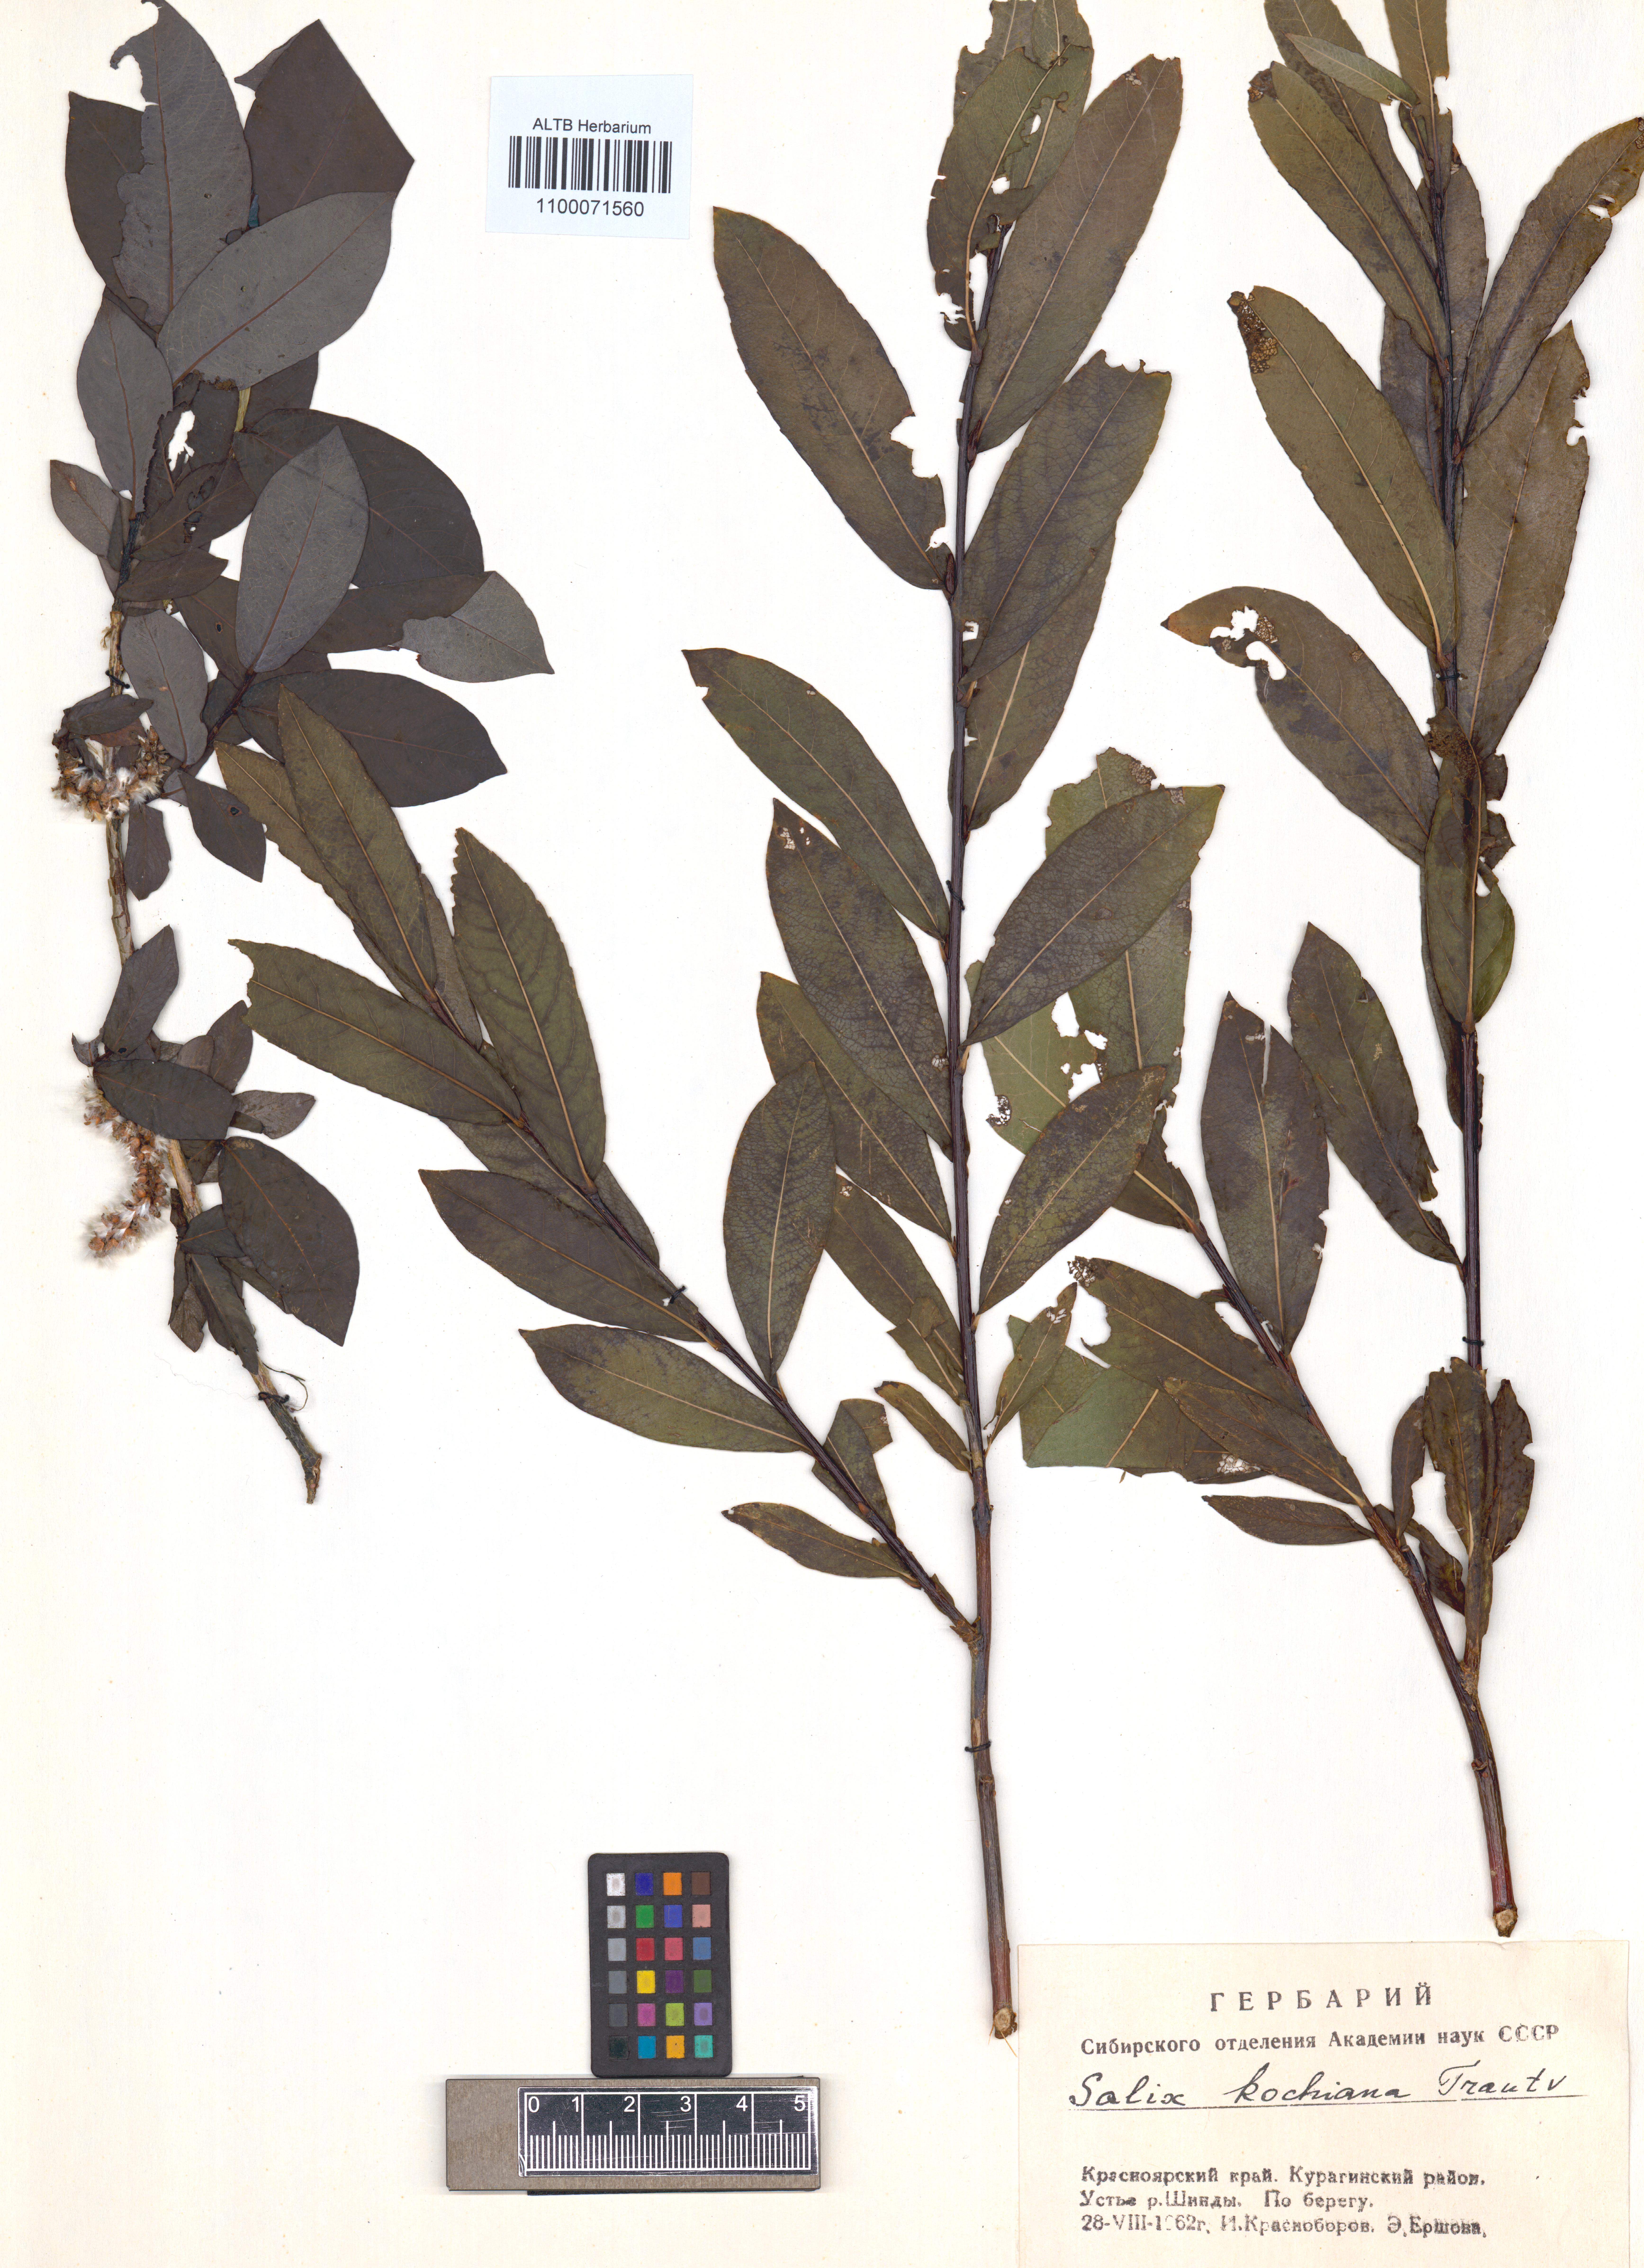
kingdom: Plantae
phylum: Tracheophyta
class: Magnoliopsida
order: Malpighiales
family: Salicaceae
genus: Salix
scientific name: Salix kochiana
